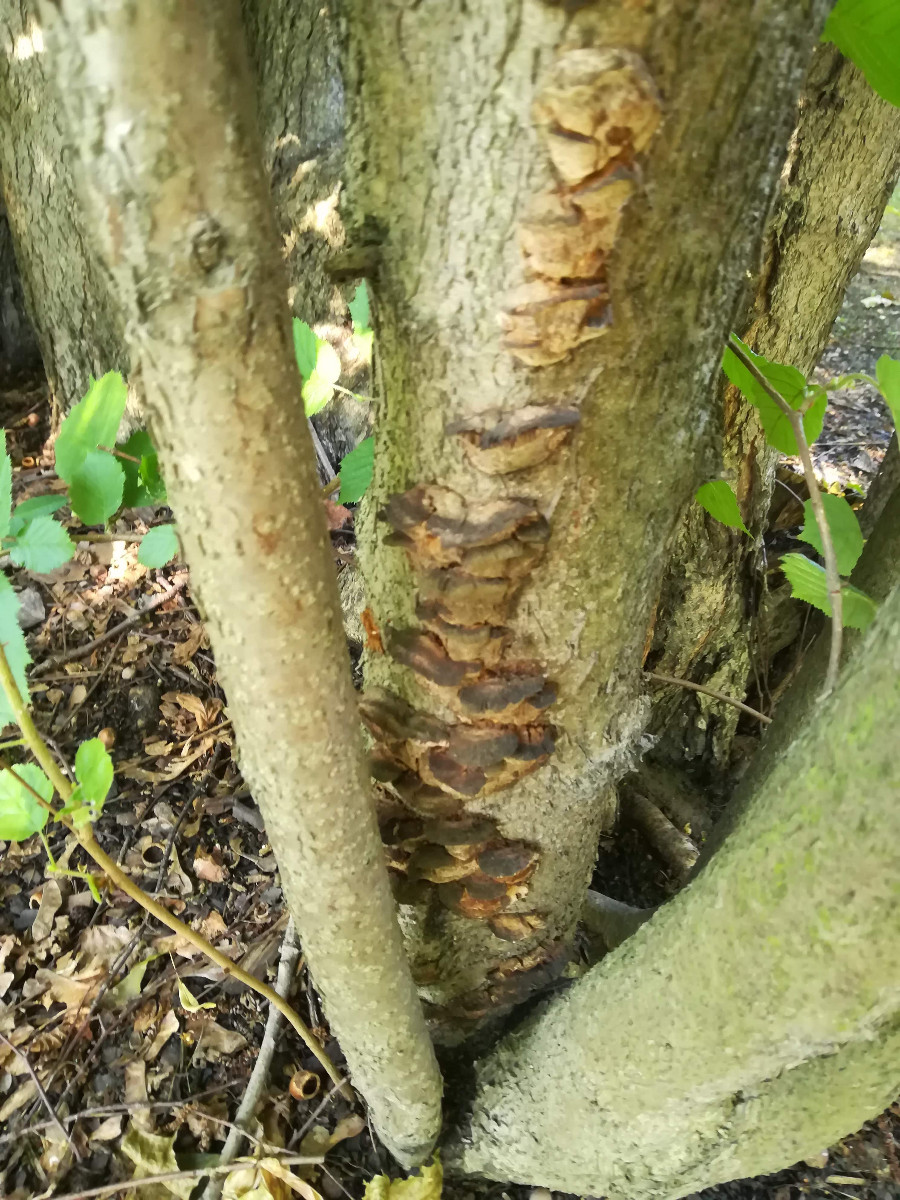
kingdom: Fungi
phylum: Basidiomycota
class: Agaricomycetes
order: Hymenochaetales
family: Hymenochaetaceae
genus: Xanthoporia
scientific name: Xanthoporia radiata
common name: elle-spejlporesvamp
